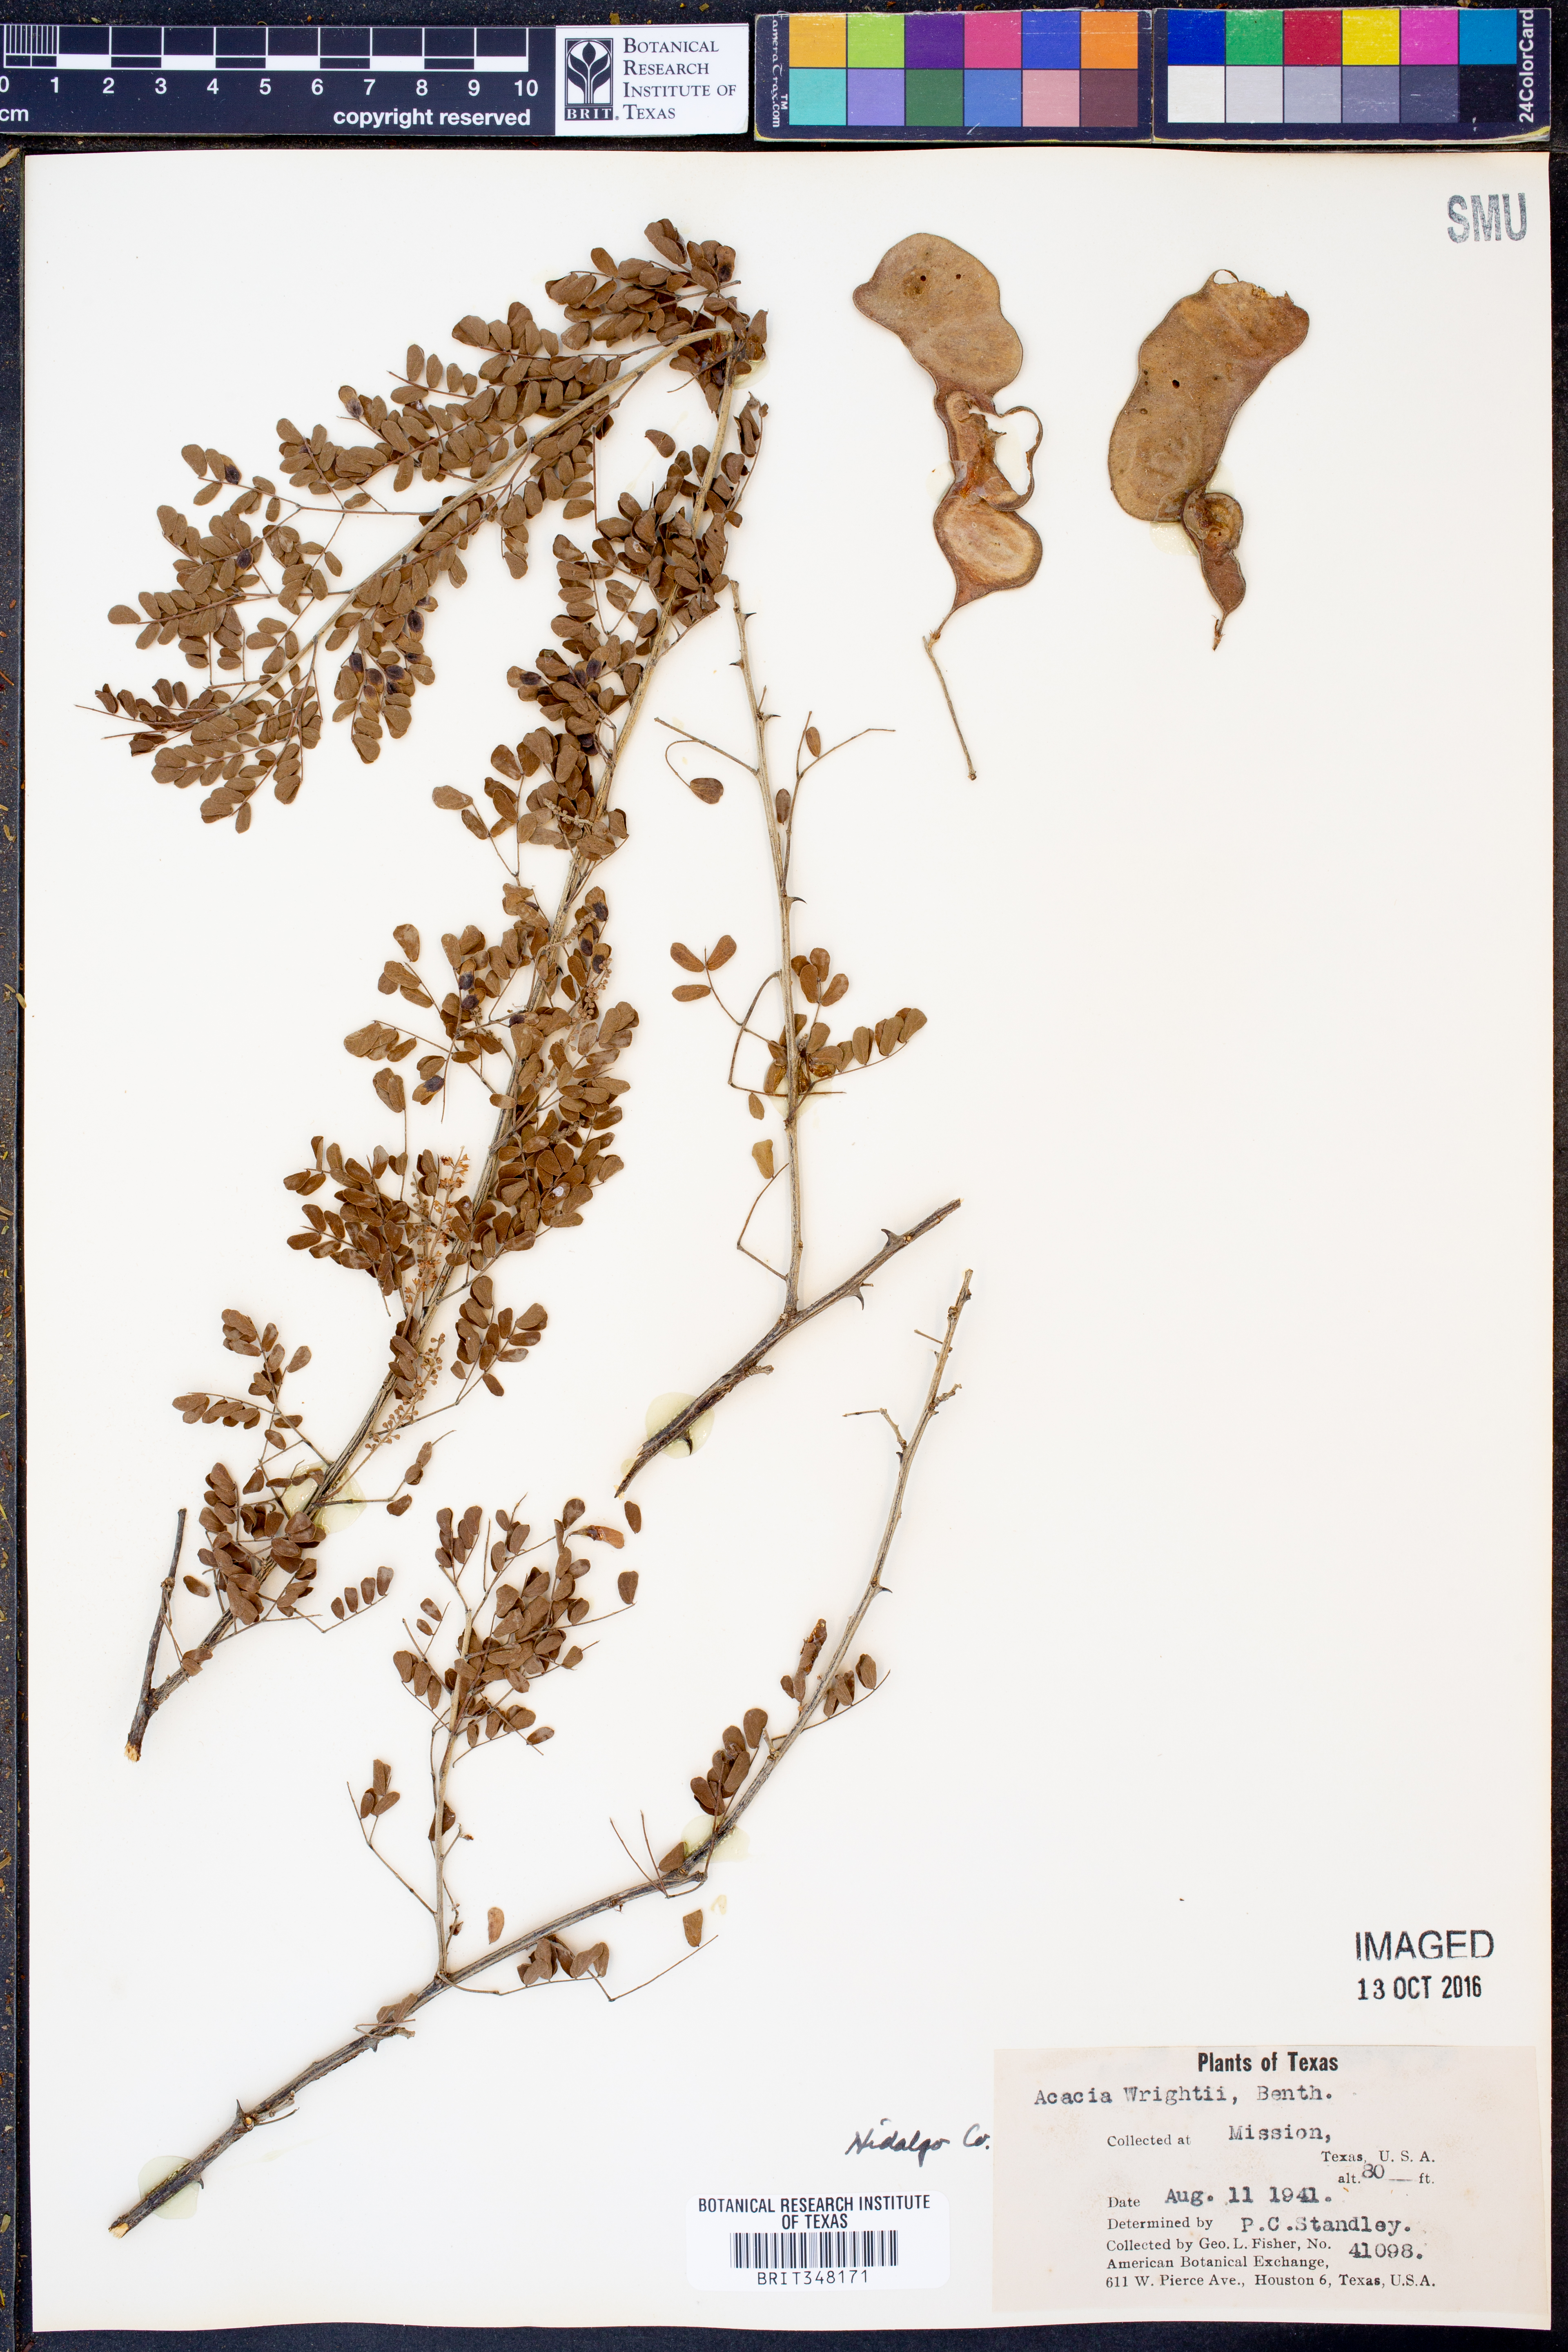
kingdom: Plantae
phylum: Tracheophyta
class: Magnoliopsida
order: Fabales
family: Fabaceae
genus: Senegalia
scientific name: Senegalia wrightii
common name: Texas cat's-claw
